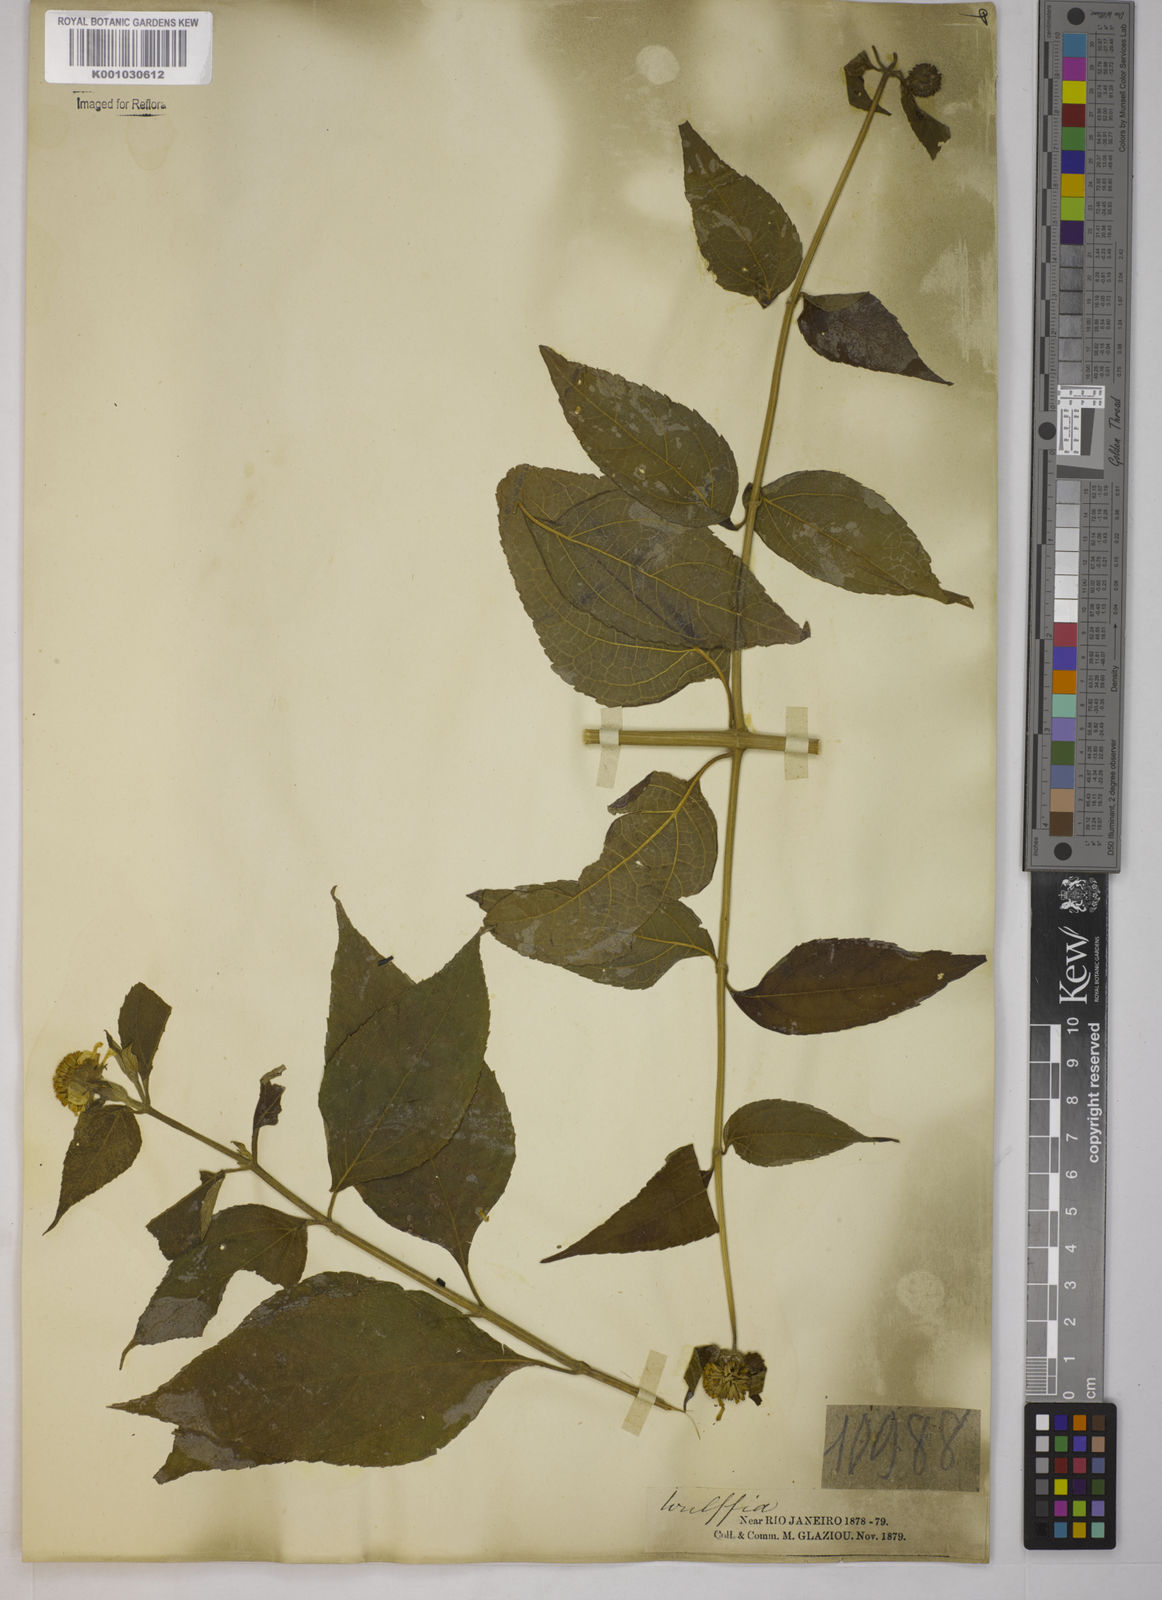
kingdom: Plantae
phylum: Tracheophyta
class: Magnoliopsida
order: Asterales
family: Asteraceae
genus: Tilesia
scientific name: Tilesia baccata
